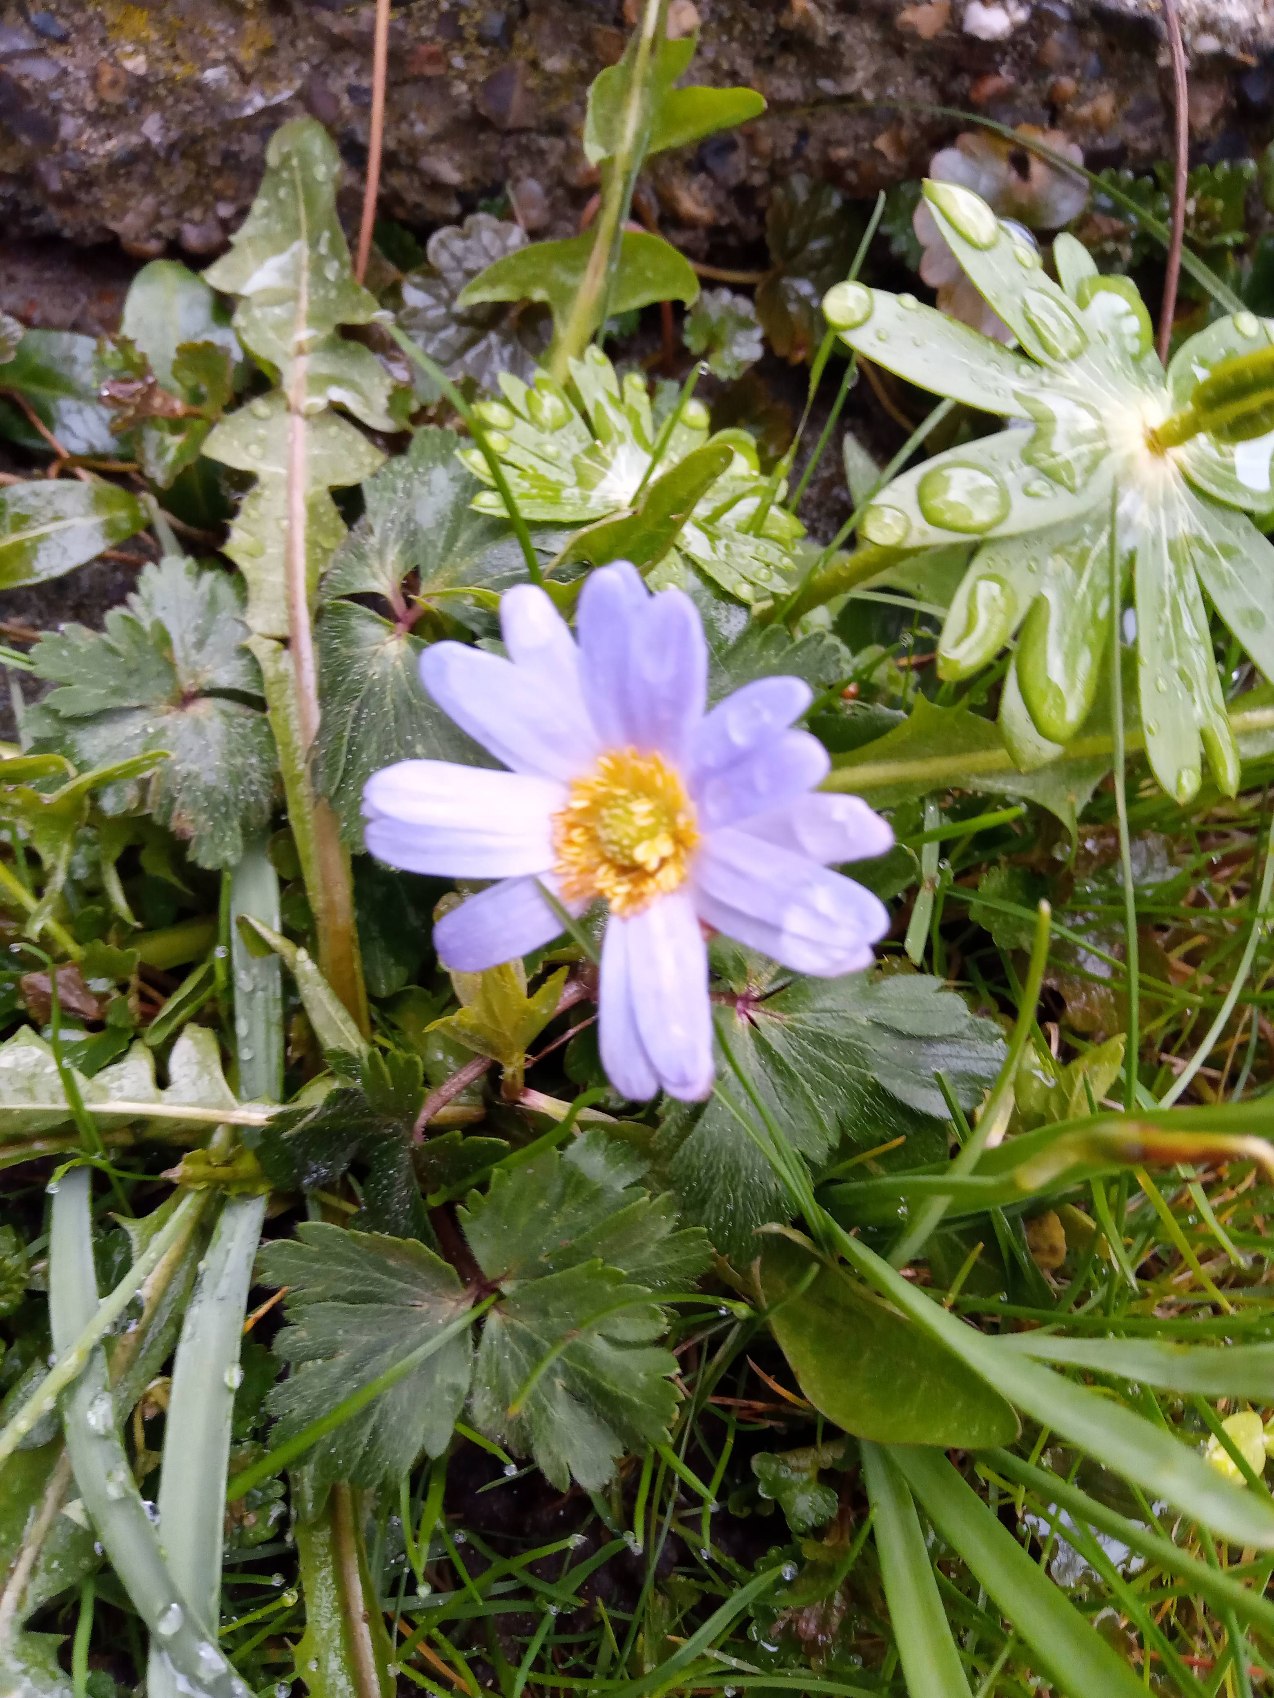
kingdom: Plantae
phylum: Tracheophyta
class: Magnoliopsida
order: Ranunculales
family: Ranunculaceae
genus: Anemone
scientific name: Anemone blanda
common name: Balkan-anemone
